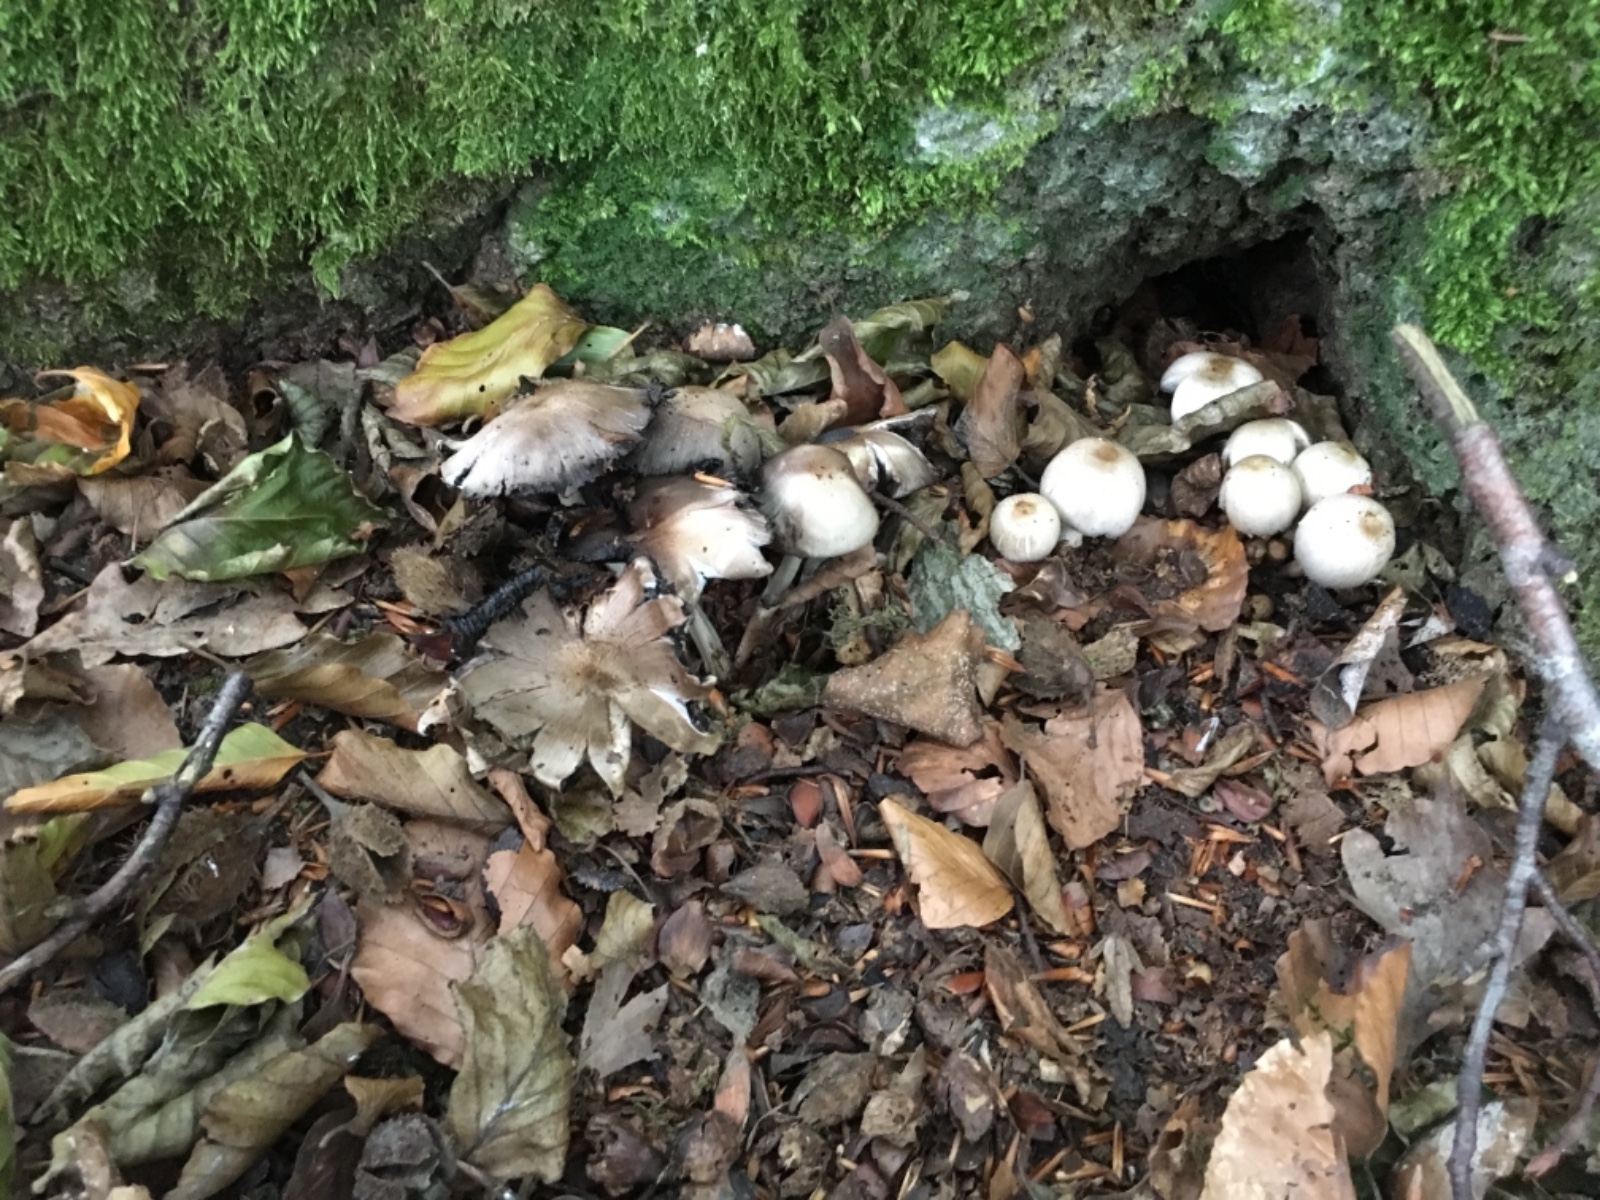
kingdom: Fungi
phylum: Basidiomycota
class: Agaricomycetes
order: Agaricales
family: Psathyrellaceae
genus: Coprinopsis
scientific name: Coprinopsis atramentaria
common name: almindelig blækhat
